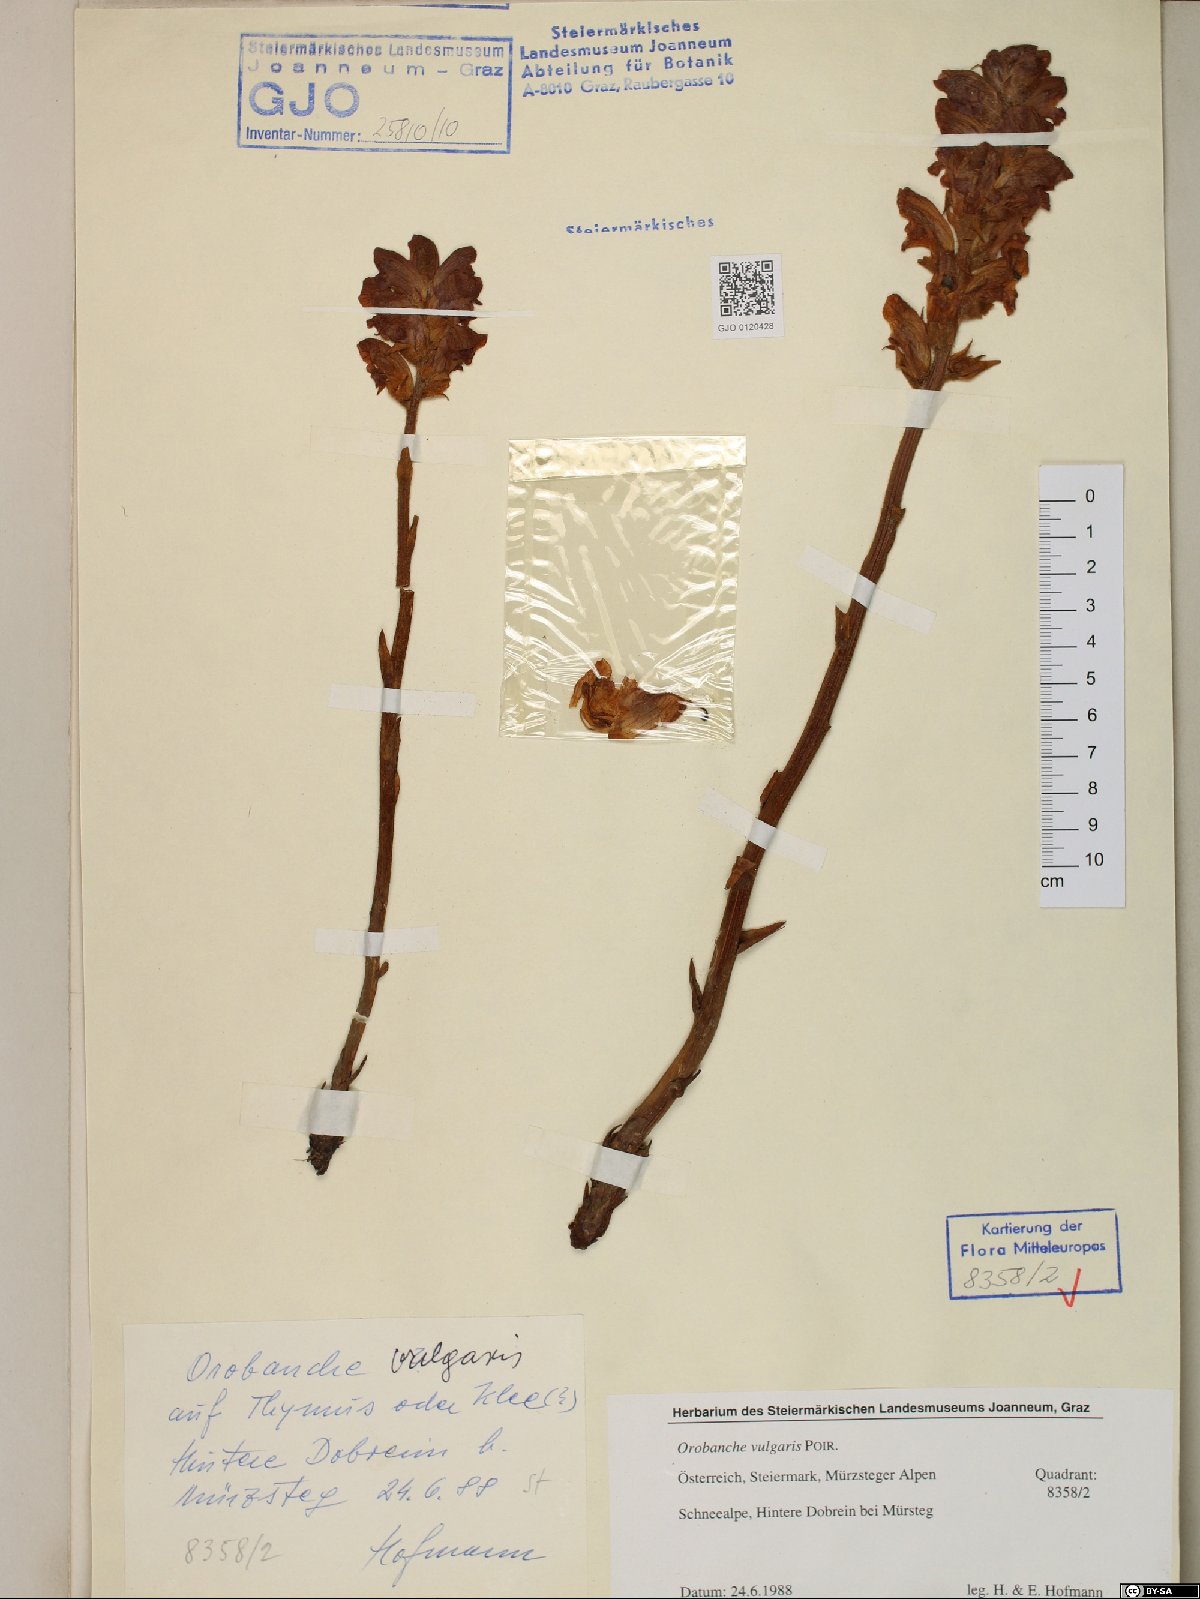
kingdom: Plantae
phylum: Tracheophyta
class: Magnoliopsida
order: Lamiales
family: Orobanchaceae
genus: Orobanche
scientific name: Orobanche caryophyllacea
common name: Bedstraw broomrape
